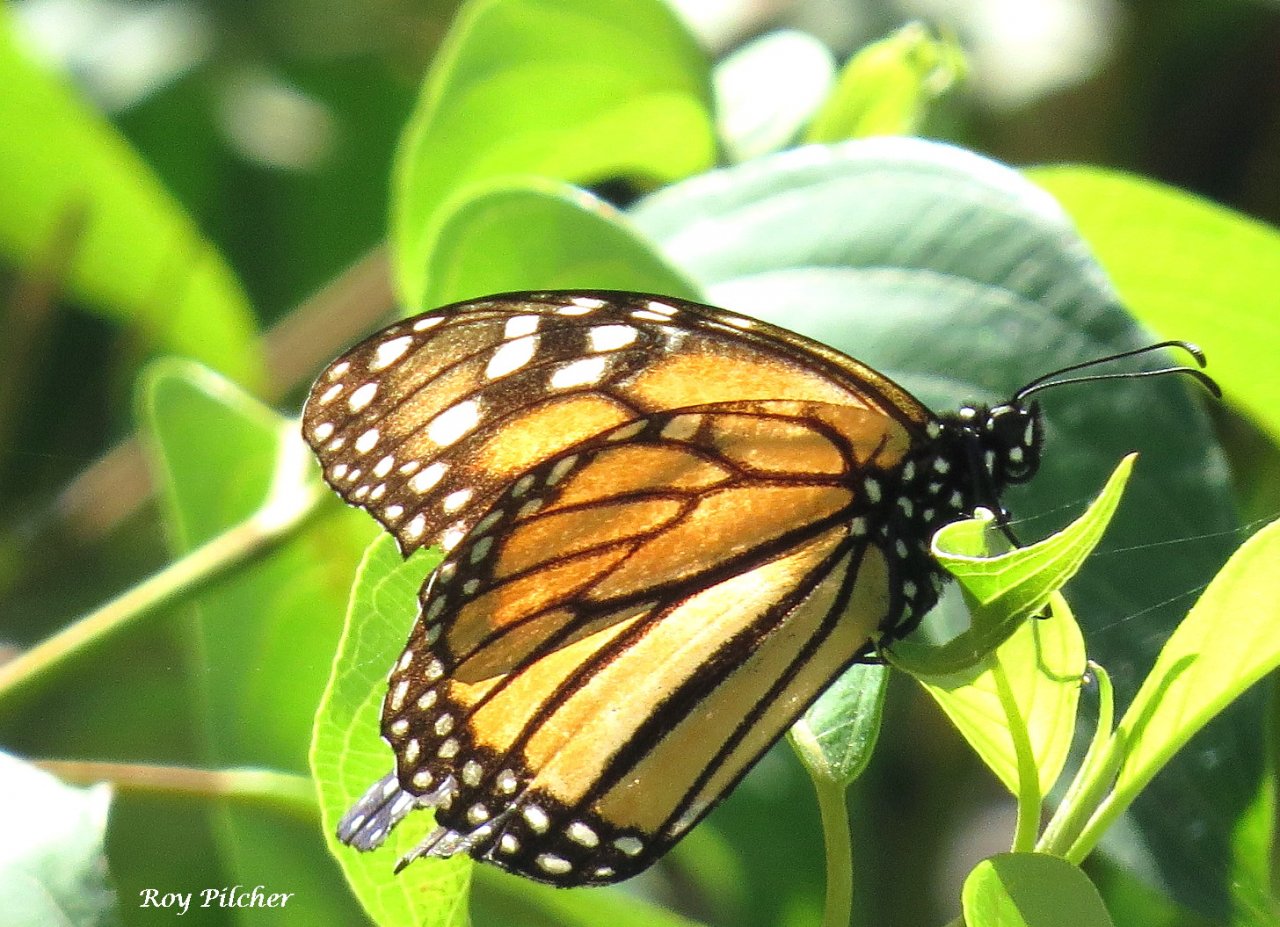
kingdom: Animalia
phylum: Arthropoda
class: Insecta
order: Lepidoptera
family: Nymphalidae
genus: Danaus
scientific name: Danaus plexippus
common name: Monarch
